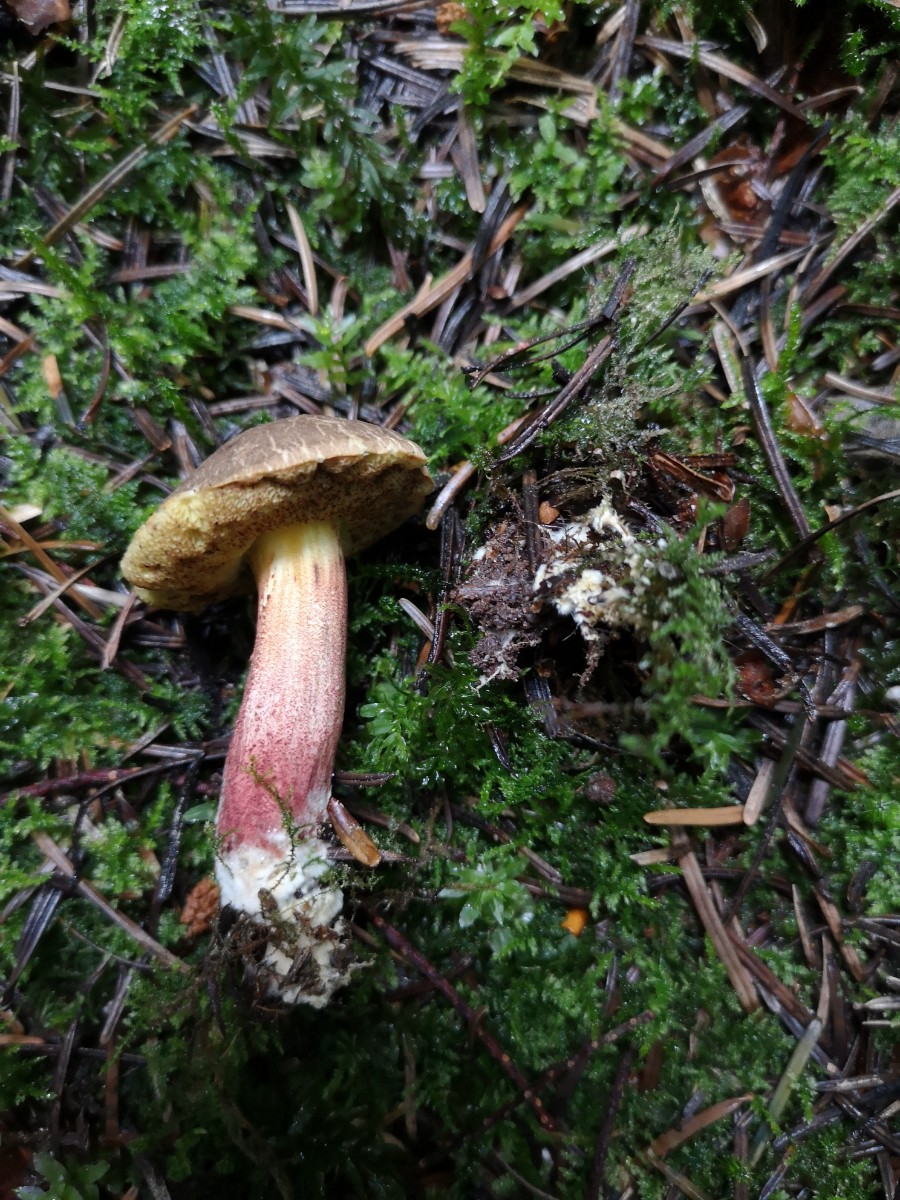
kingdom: Fungi
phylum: Basidiomycota
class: Agaricomycetes
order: Boletales
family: Boletaceae
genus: Xerocomellus
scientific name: Xerocomellus chrysenteron
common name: rødsprukken rørhat
